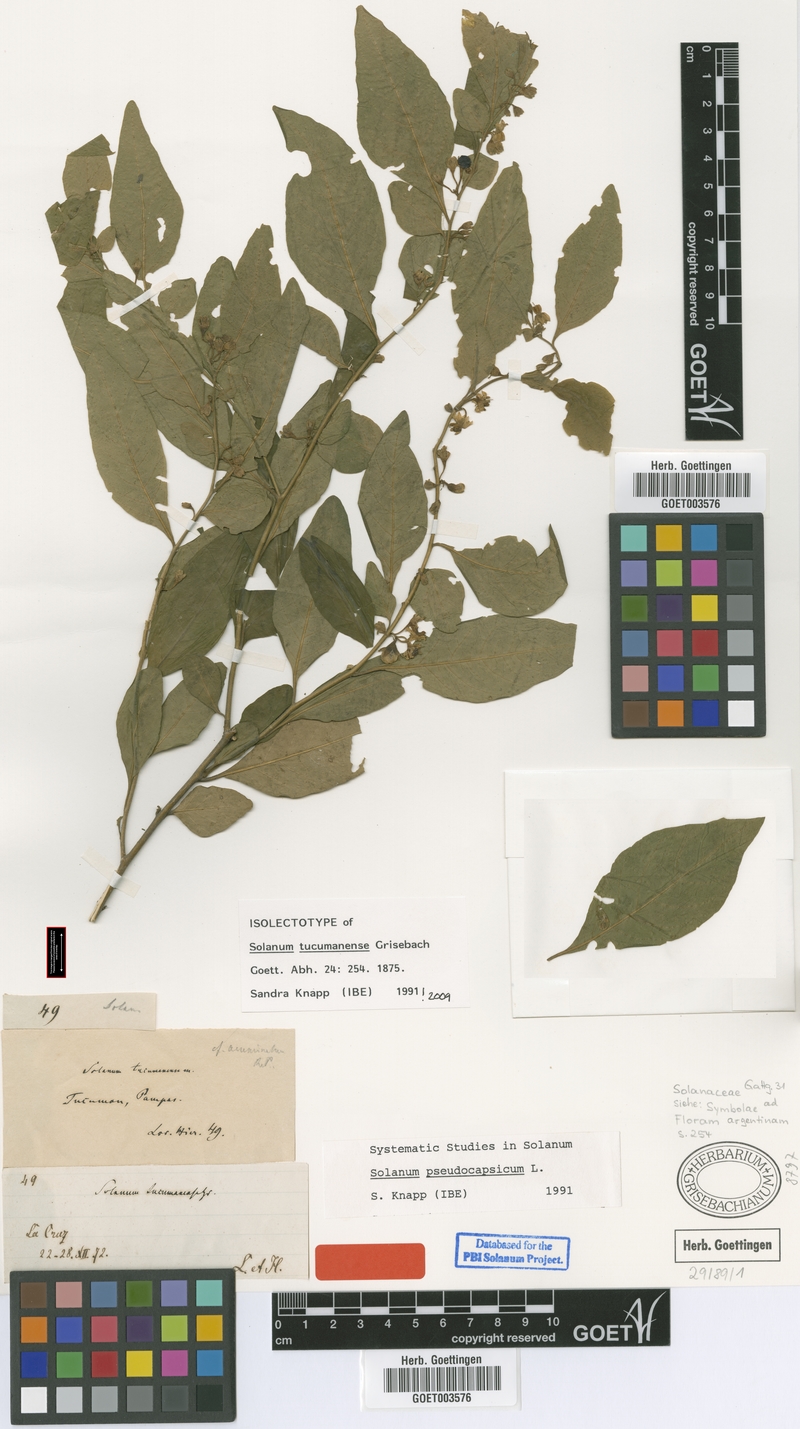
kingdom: Plantae
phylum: Tracheophyta
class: Magnoliopsida
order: Solanales
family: Solanaceae
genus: Solanum
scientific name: Solanum pseudocapsicum
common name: Jerusalem cherry
